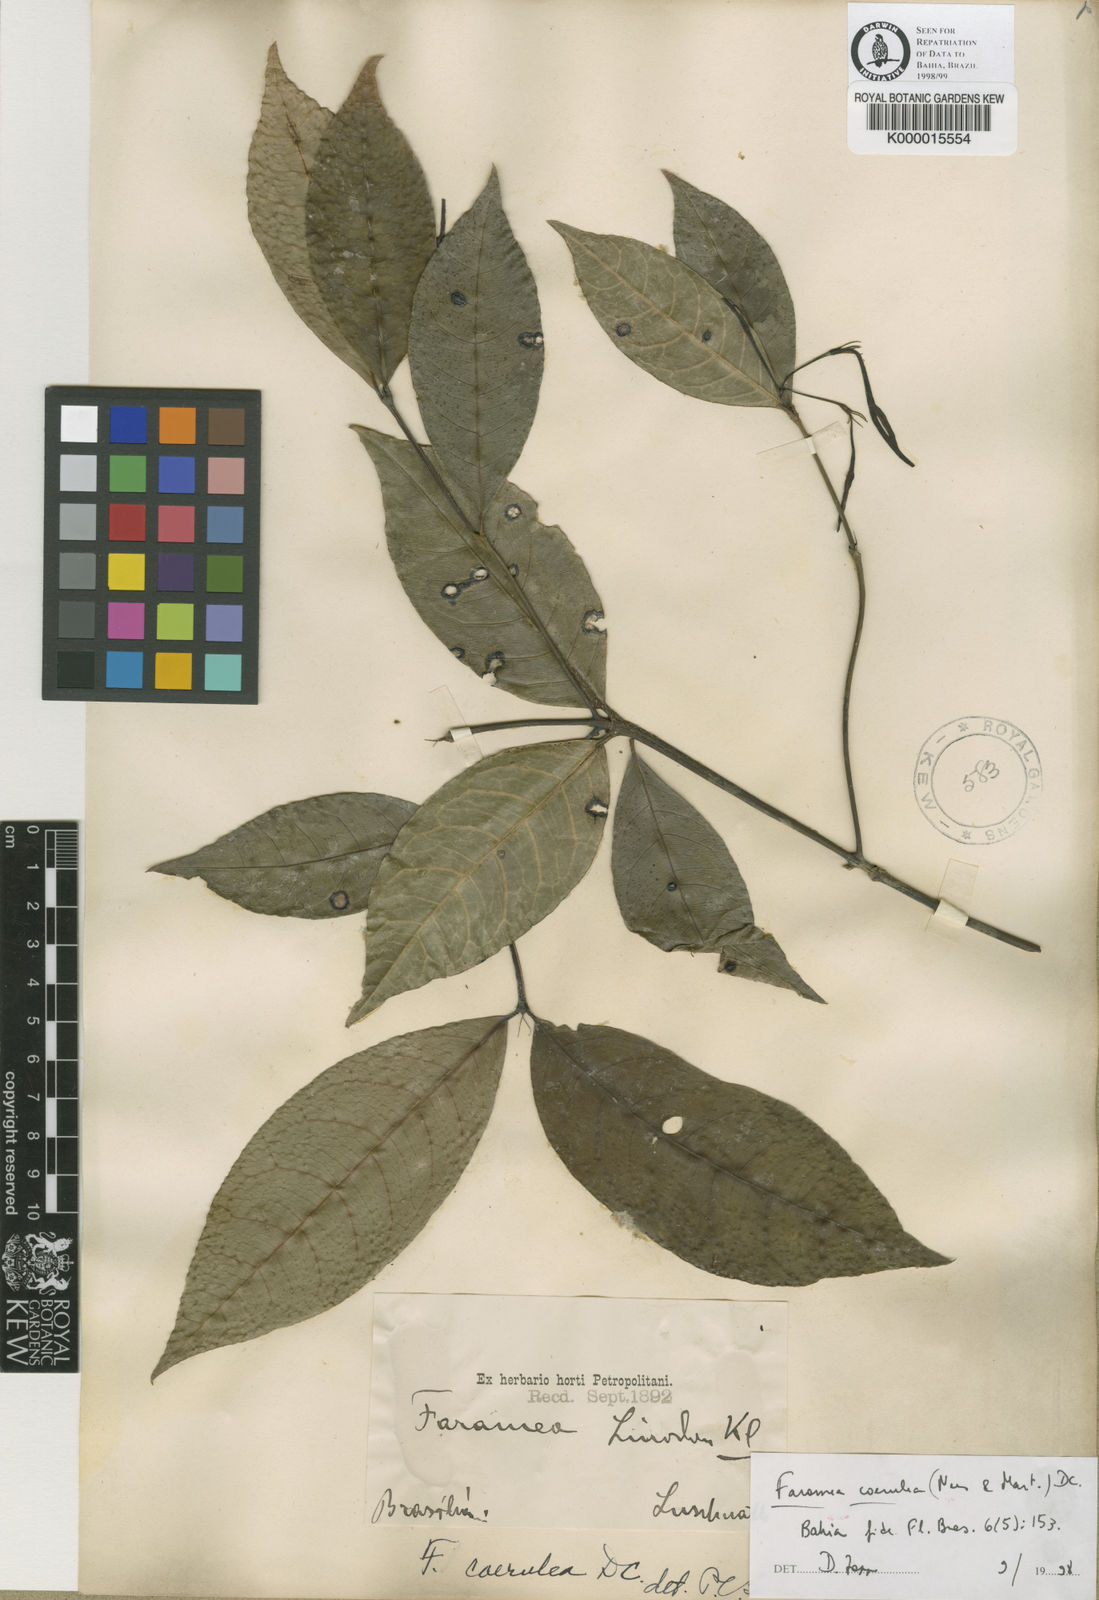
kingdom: Plantae
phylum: Tracheophyta
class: Magnoliopsida
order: Gentianales
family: Rubiaceae
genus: Faramea
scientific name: Faramea coerulea
